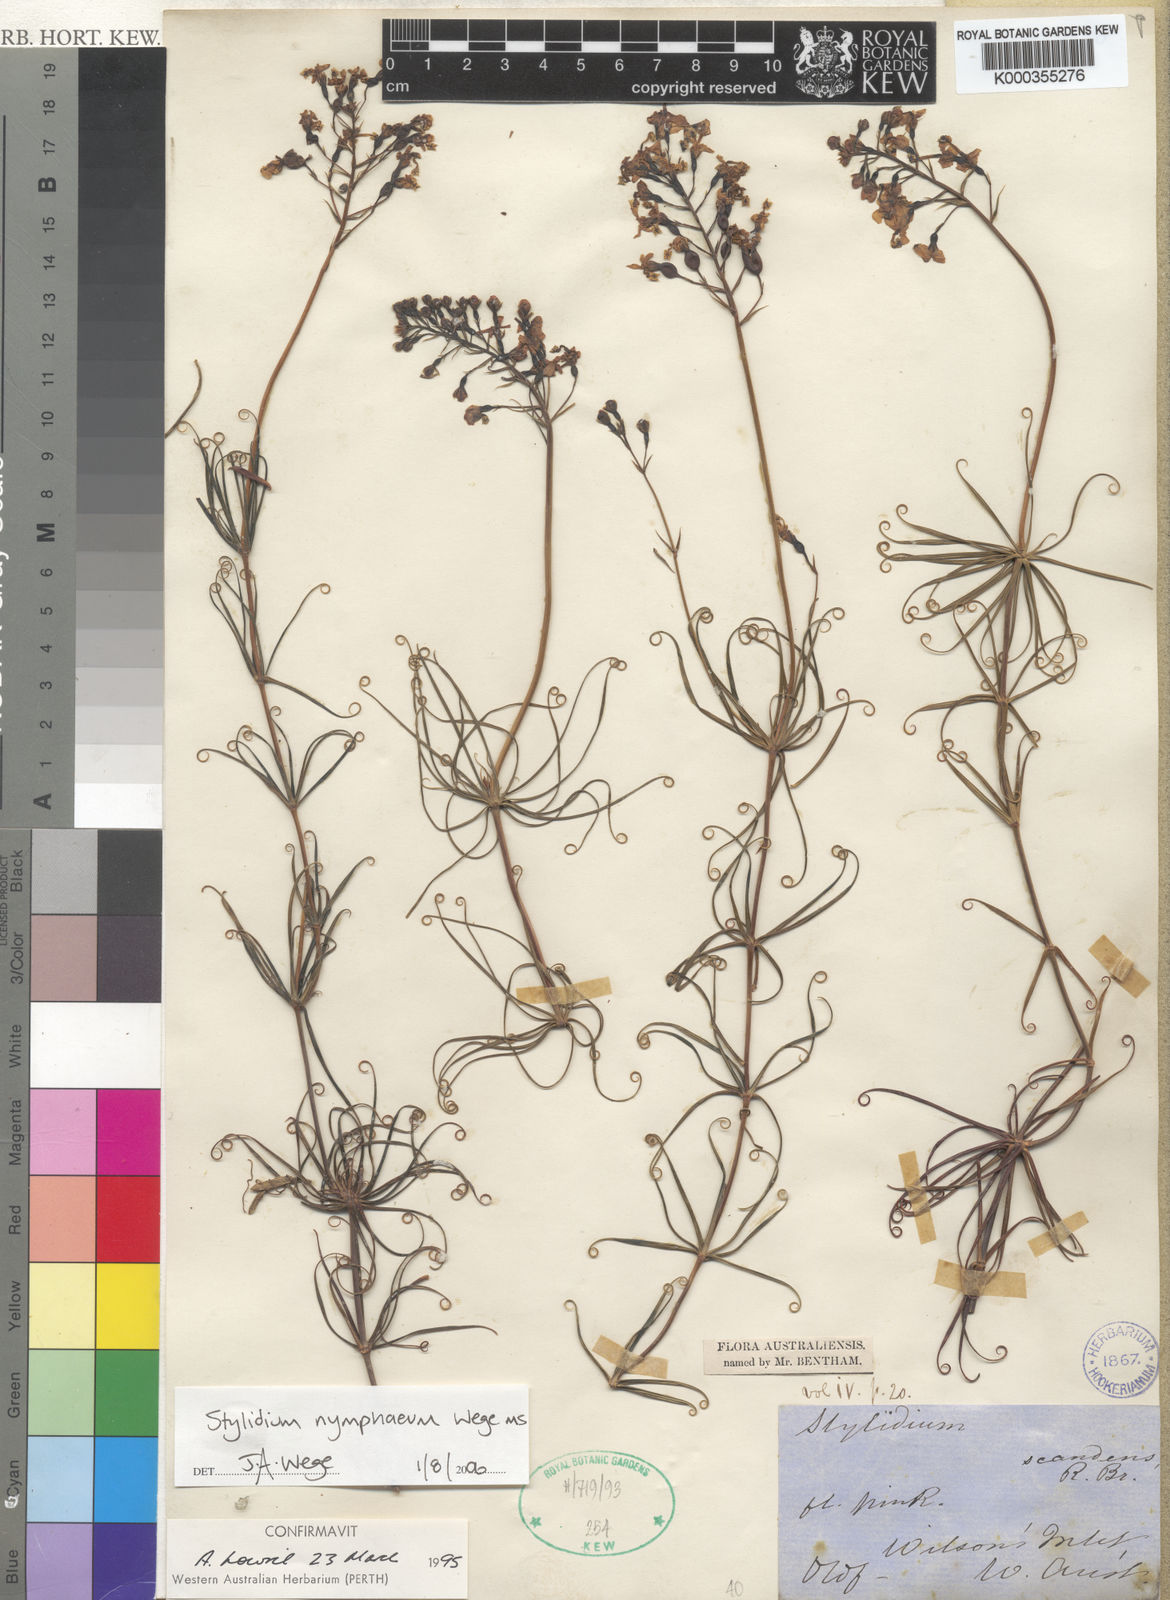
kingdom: Plantae
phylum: Tracheophyta
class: Magnoliopsida
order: Asterales
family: Stylidiaceae
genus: Stylidium
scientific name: Stylidium nymphaeum
